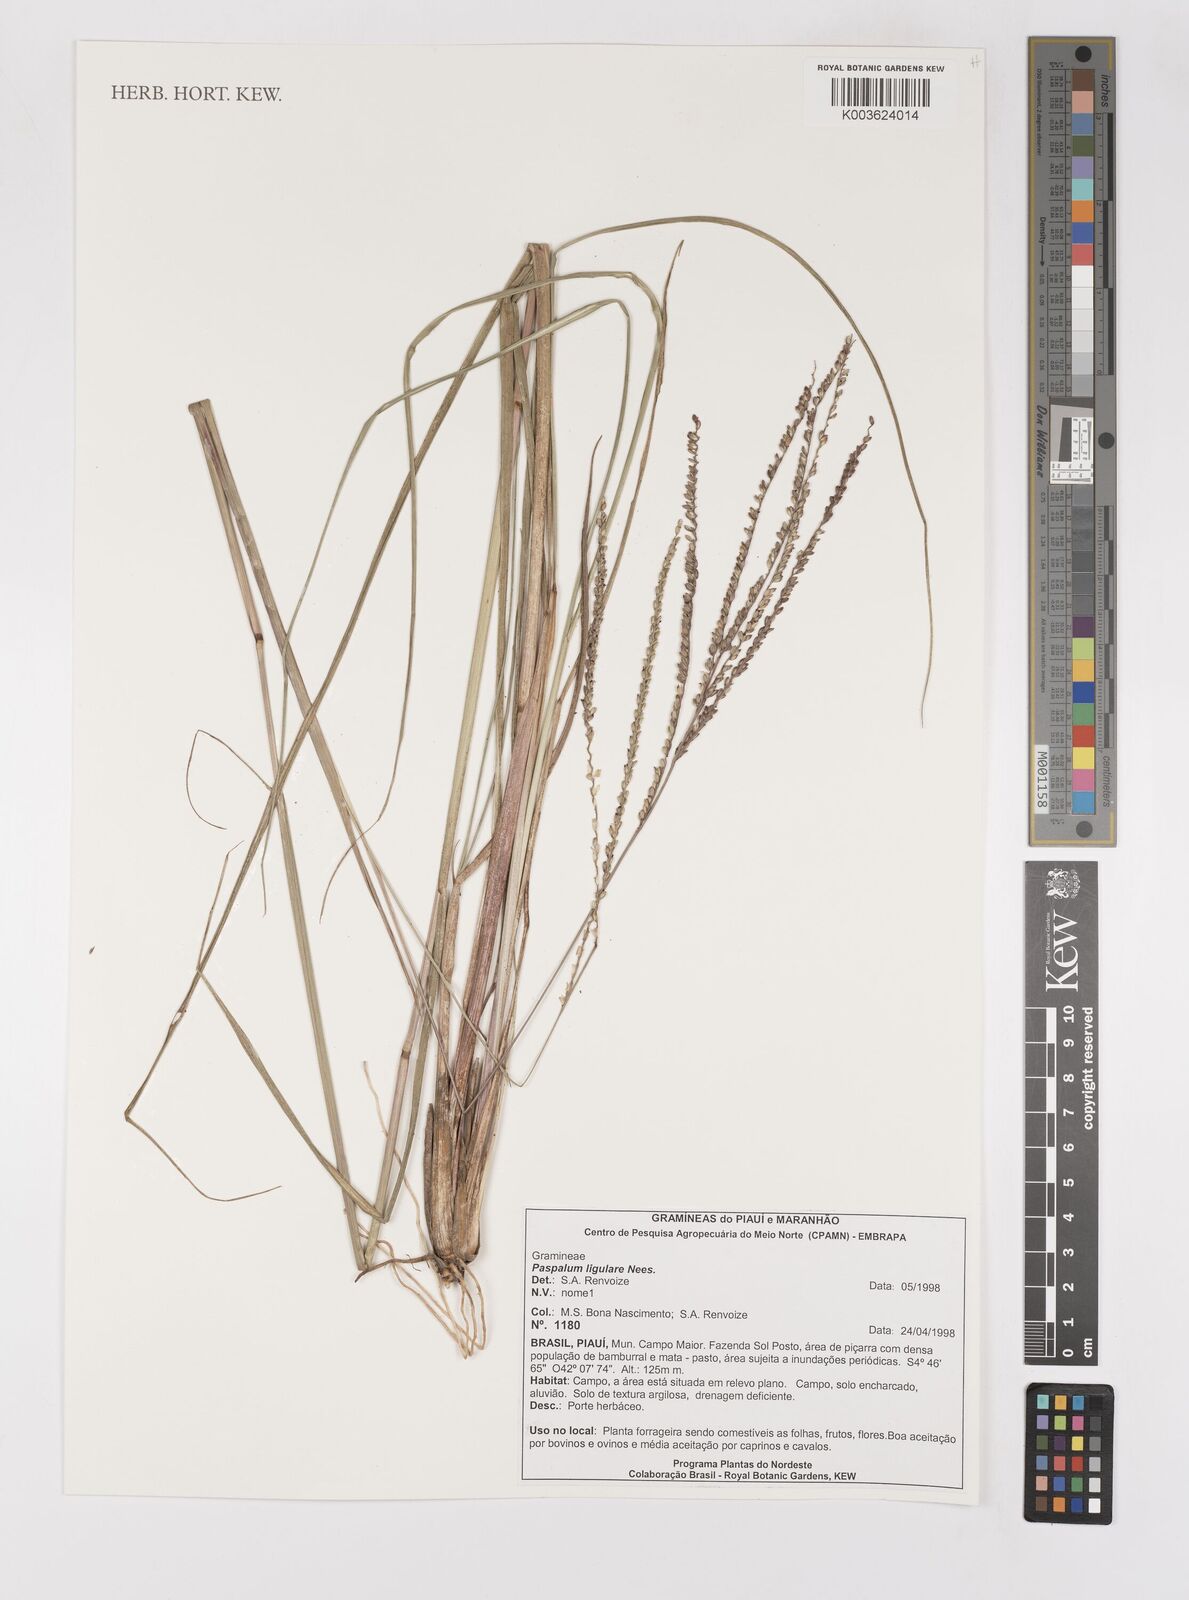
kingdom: Plantae
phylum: Tracheophyta
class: Liliopsida
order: Poales
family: Poaceae
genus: Paspalum
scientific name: Paspalum ligulare
